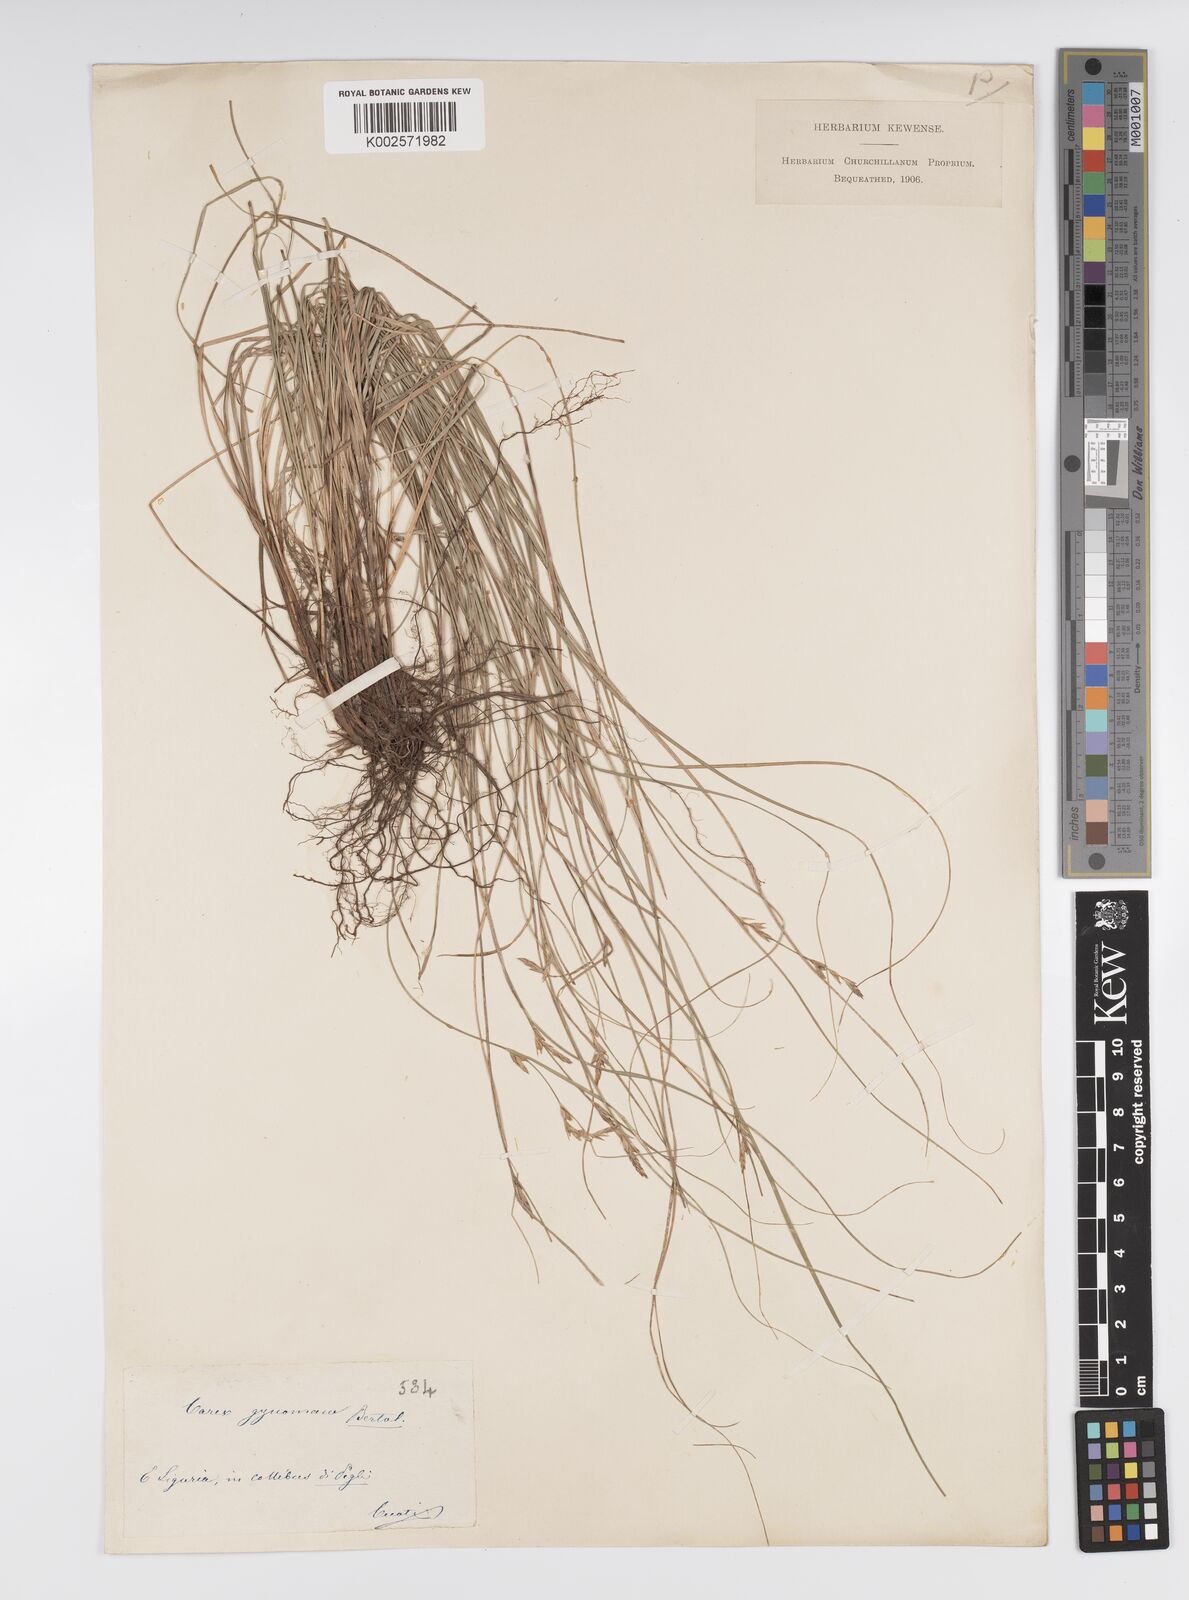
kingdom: Plantae
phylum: Tracheophyta
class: Liliopsida
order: Poales
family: Cyperaceae
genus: Carex
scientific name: Carex halleriana
